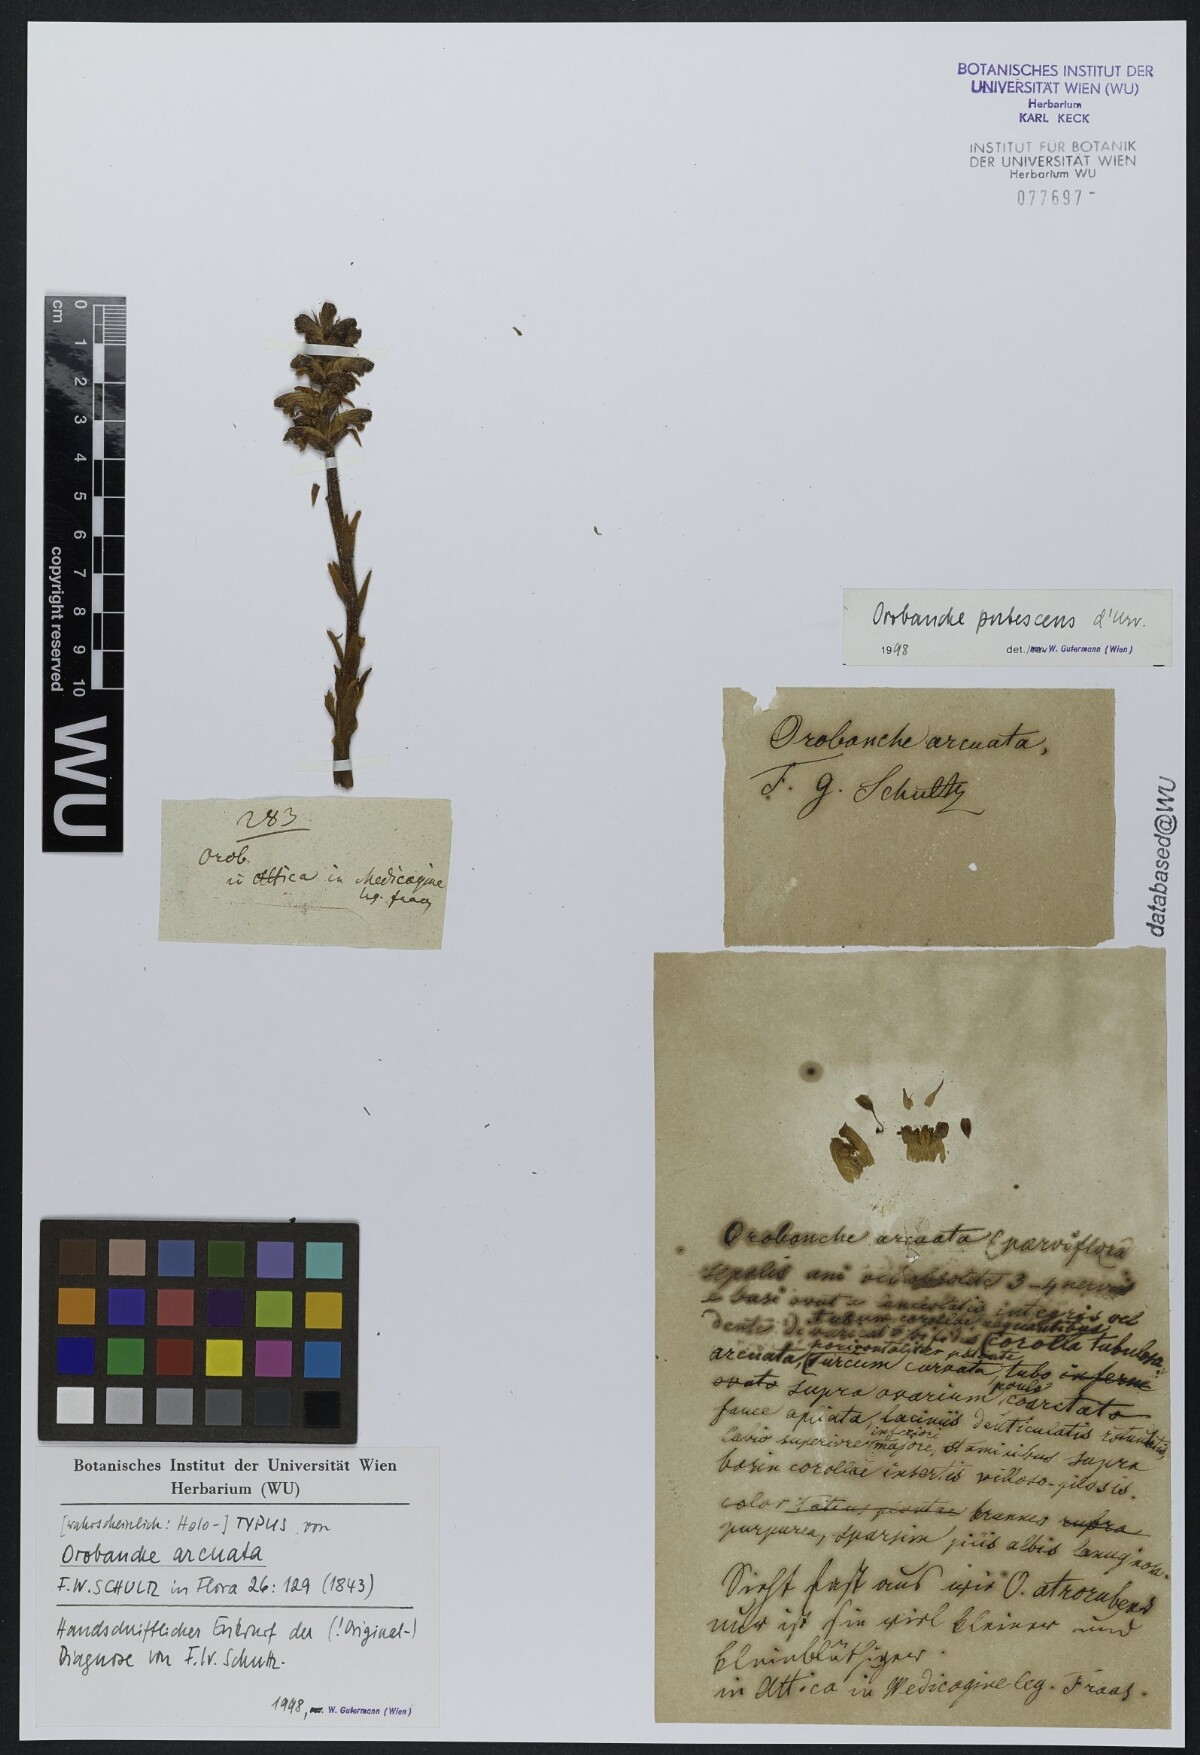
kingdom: Plantae
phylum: Tracheophyta
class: Magnoliopsida
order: Lamiales
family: Orobanchaceae
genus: Orobanche
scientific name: Orobanche pubescens
